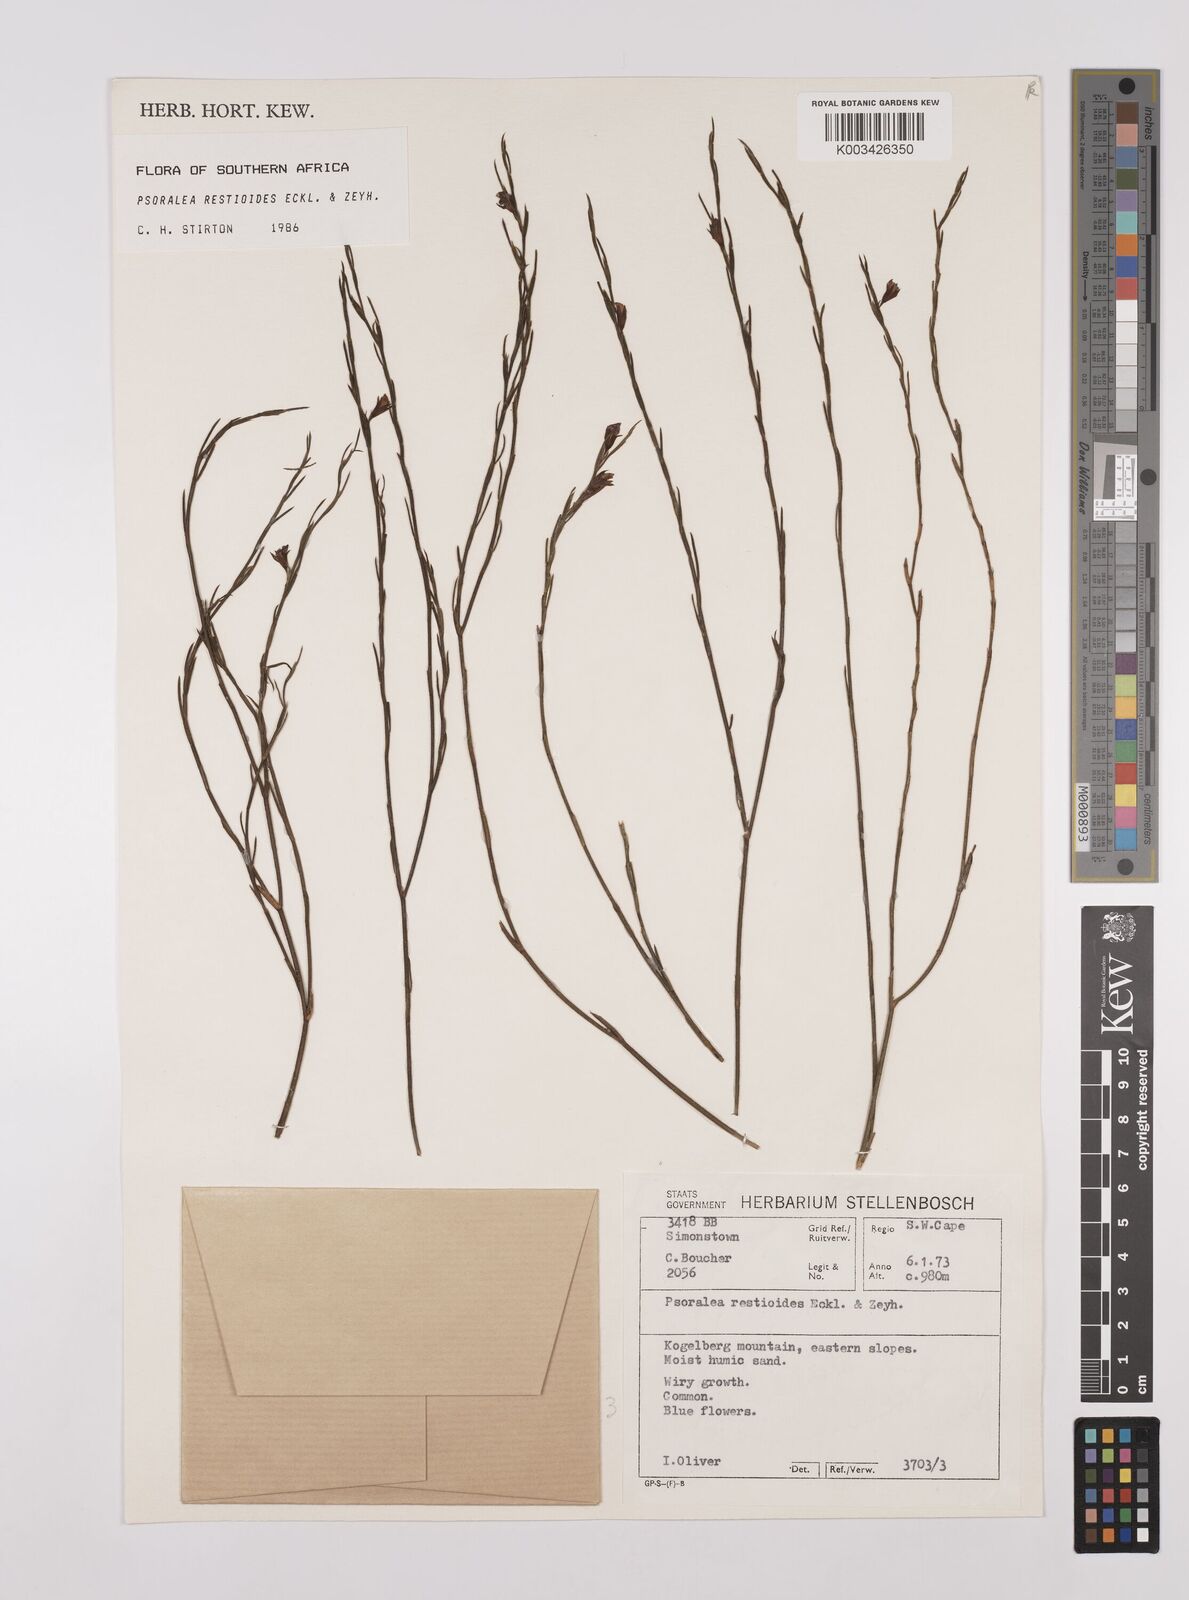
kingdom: Plantae
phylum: Tracheophyta
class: Magnoliopsida
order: Fabales
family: Fabaceae
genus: Psoralea
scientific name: Psoralea restioides
